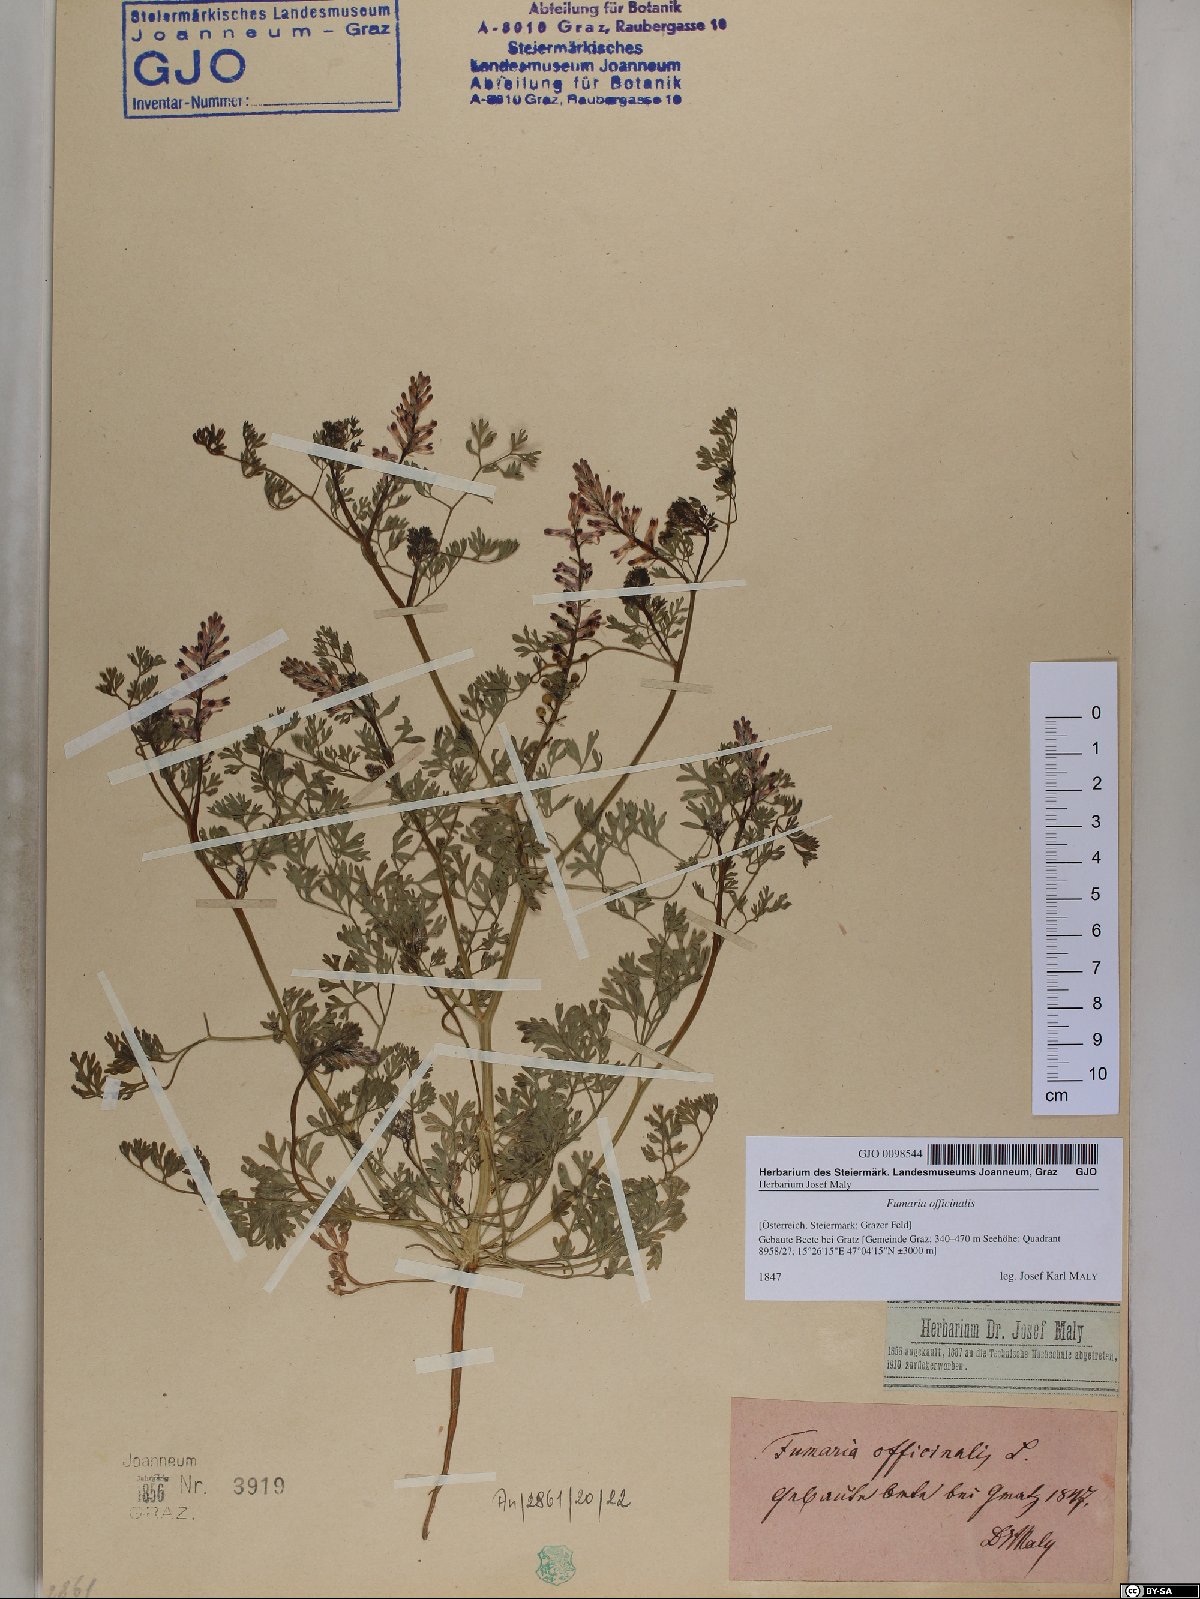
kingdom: Plantae
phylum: Tracheophyta
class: Magnoliopsida
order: Ranunculales
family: Papaveraceae
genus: Fumaria
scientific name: Fumaria officinalis
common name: Common fumitory
